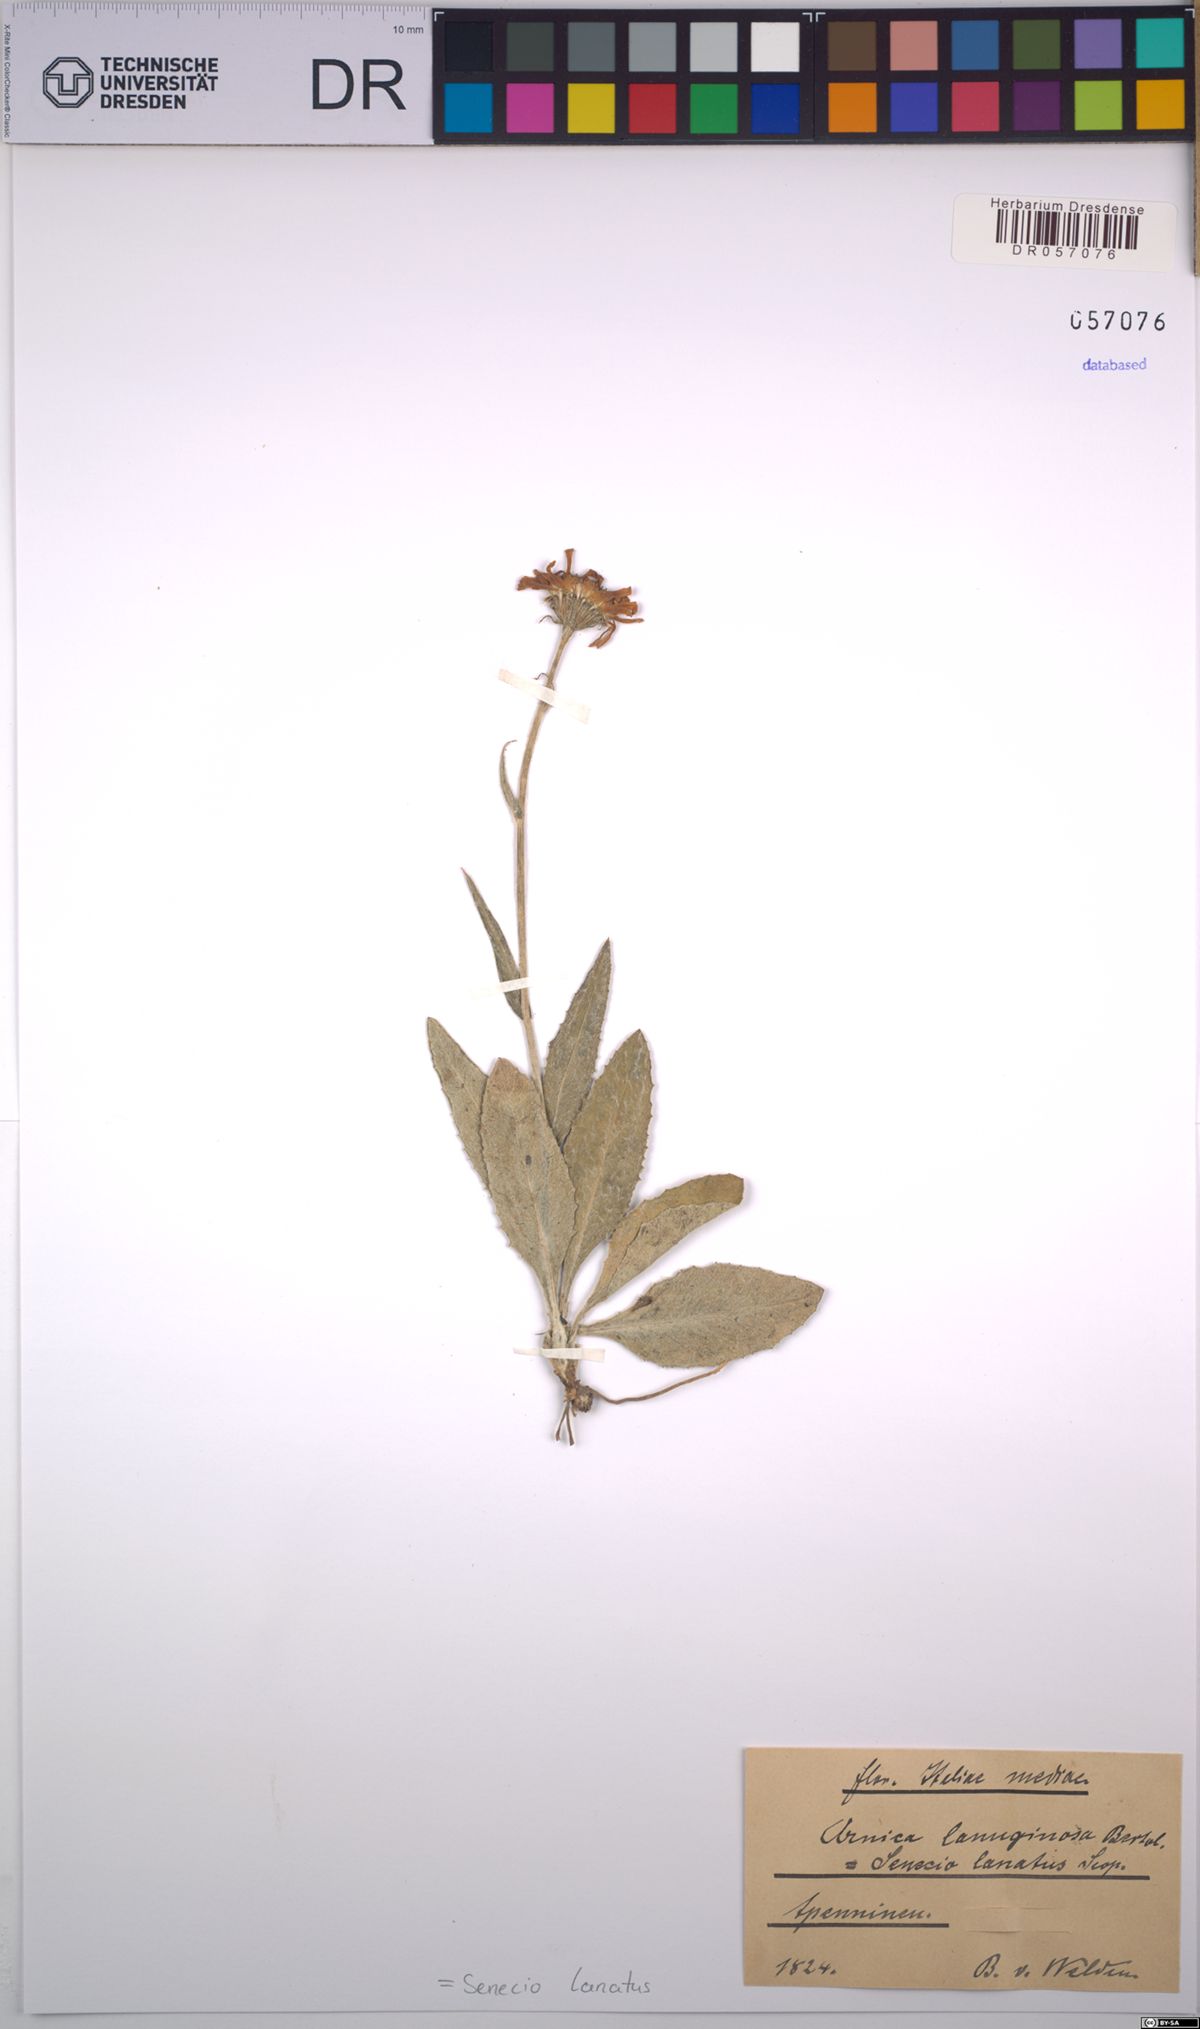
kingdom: Plantae
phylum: Tracheophyta
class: Magnoliopsida
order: Asterales
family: Asteraceae
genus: Senecio
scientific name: Senecio scopolii
